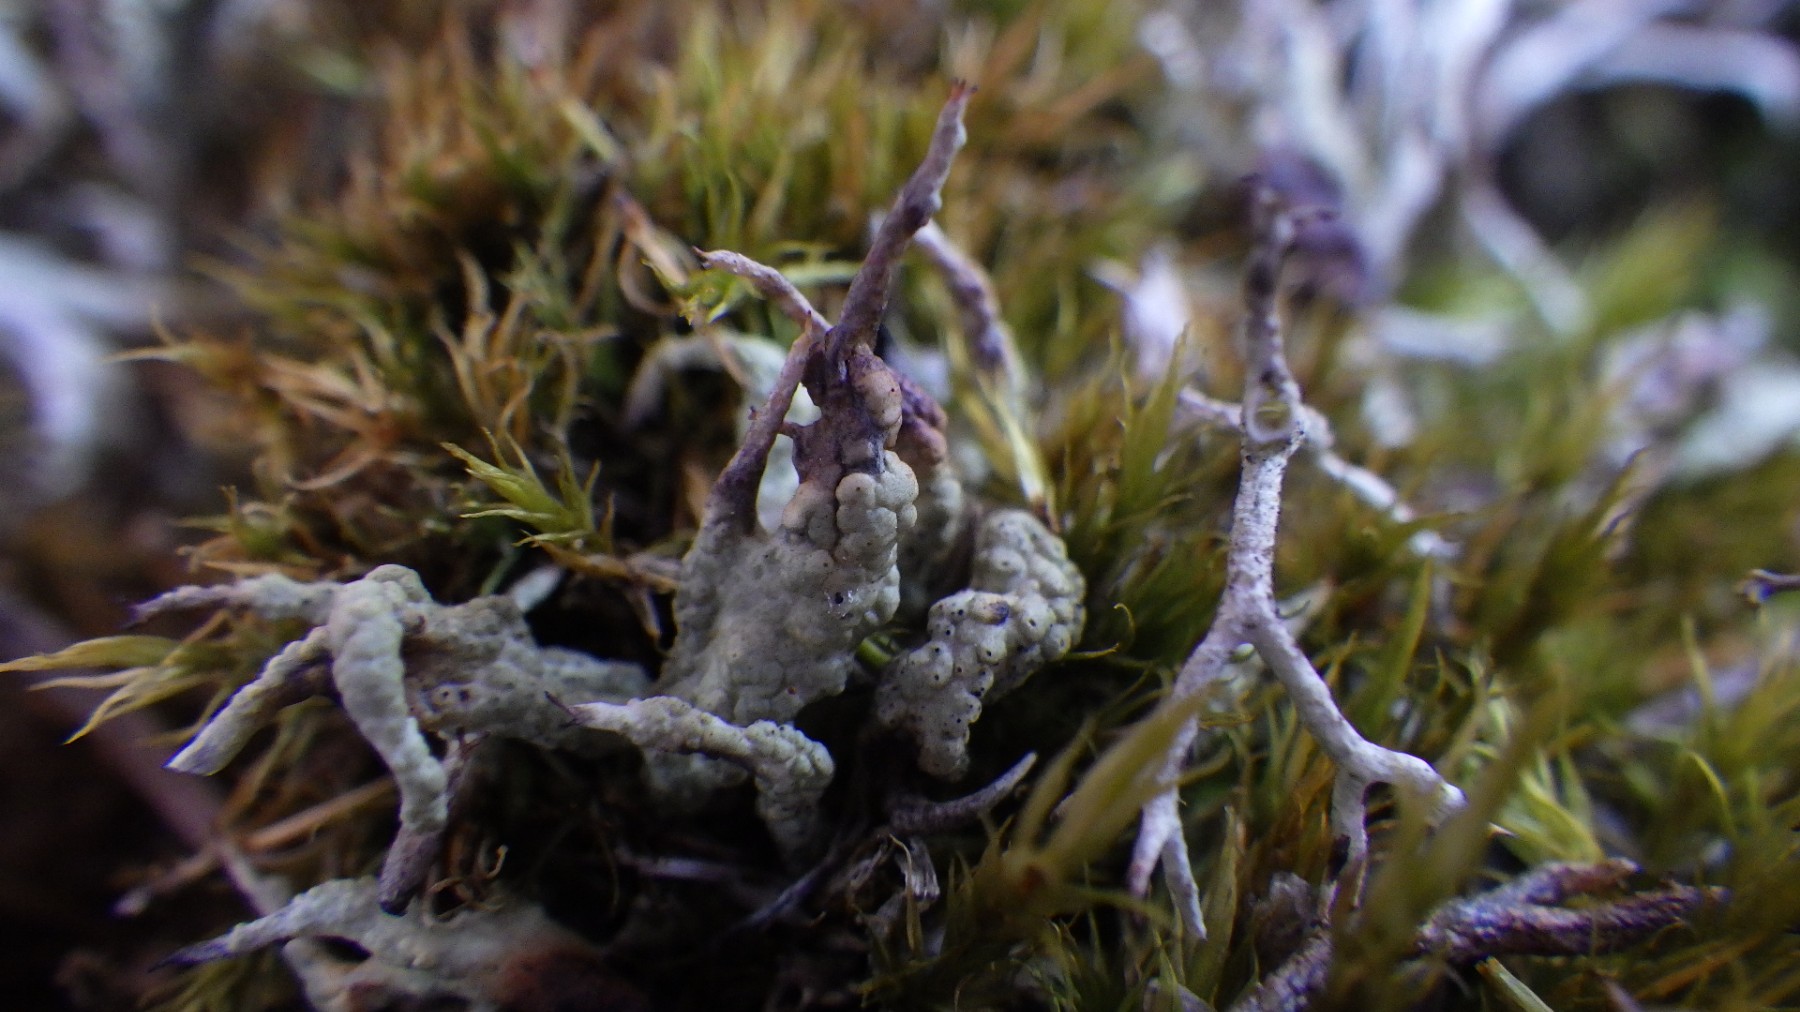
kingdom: Fungi
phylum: Ascomycota
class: Lecanoromycetes
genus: Bachmanniomyces
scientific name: Bachmanniomyces uncialicola
